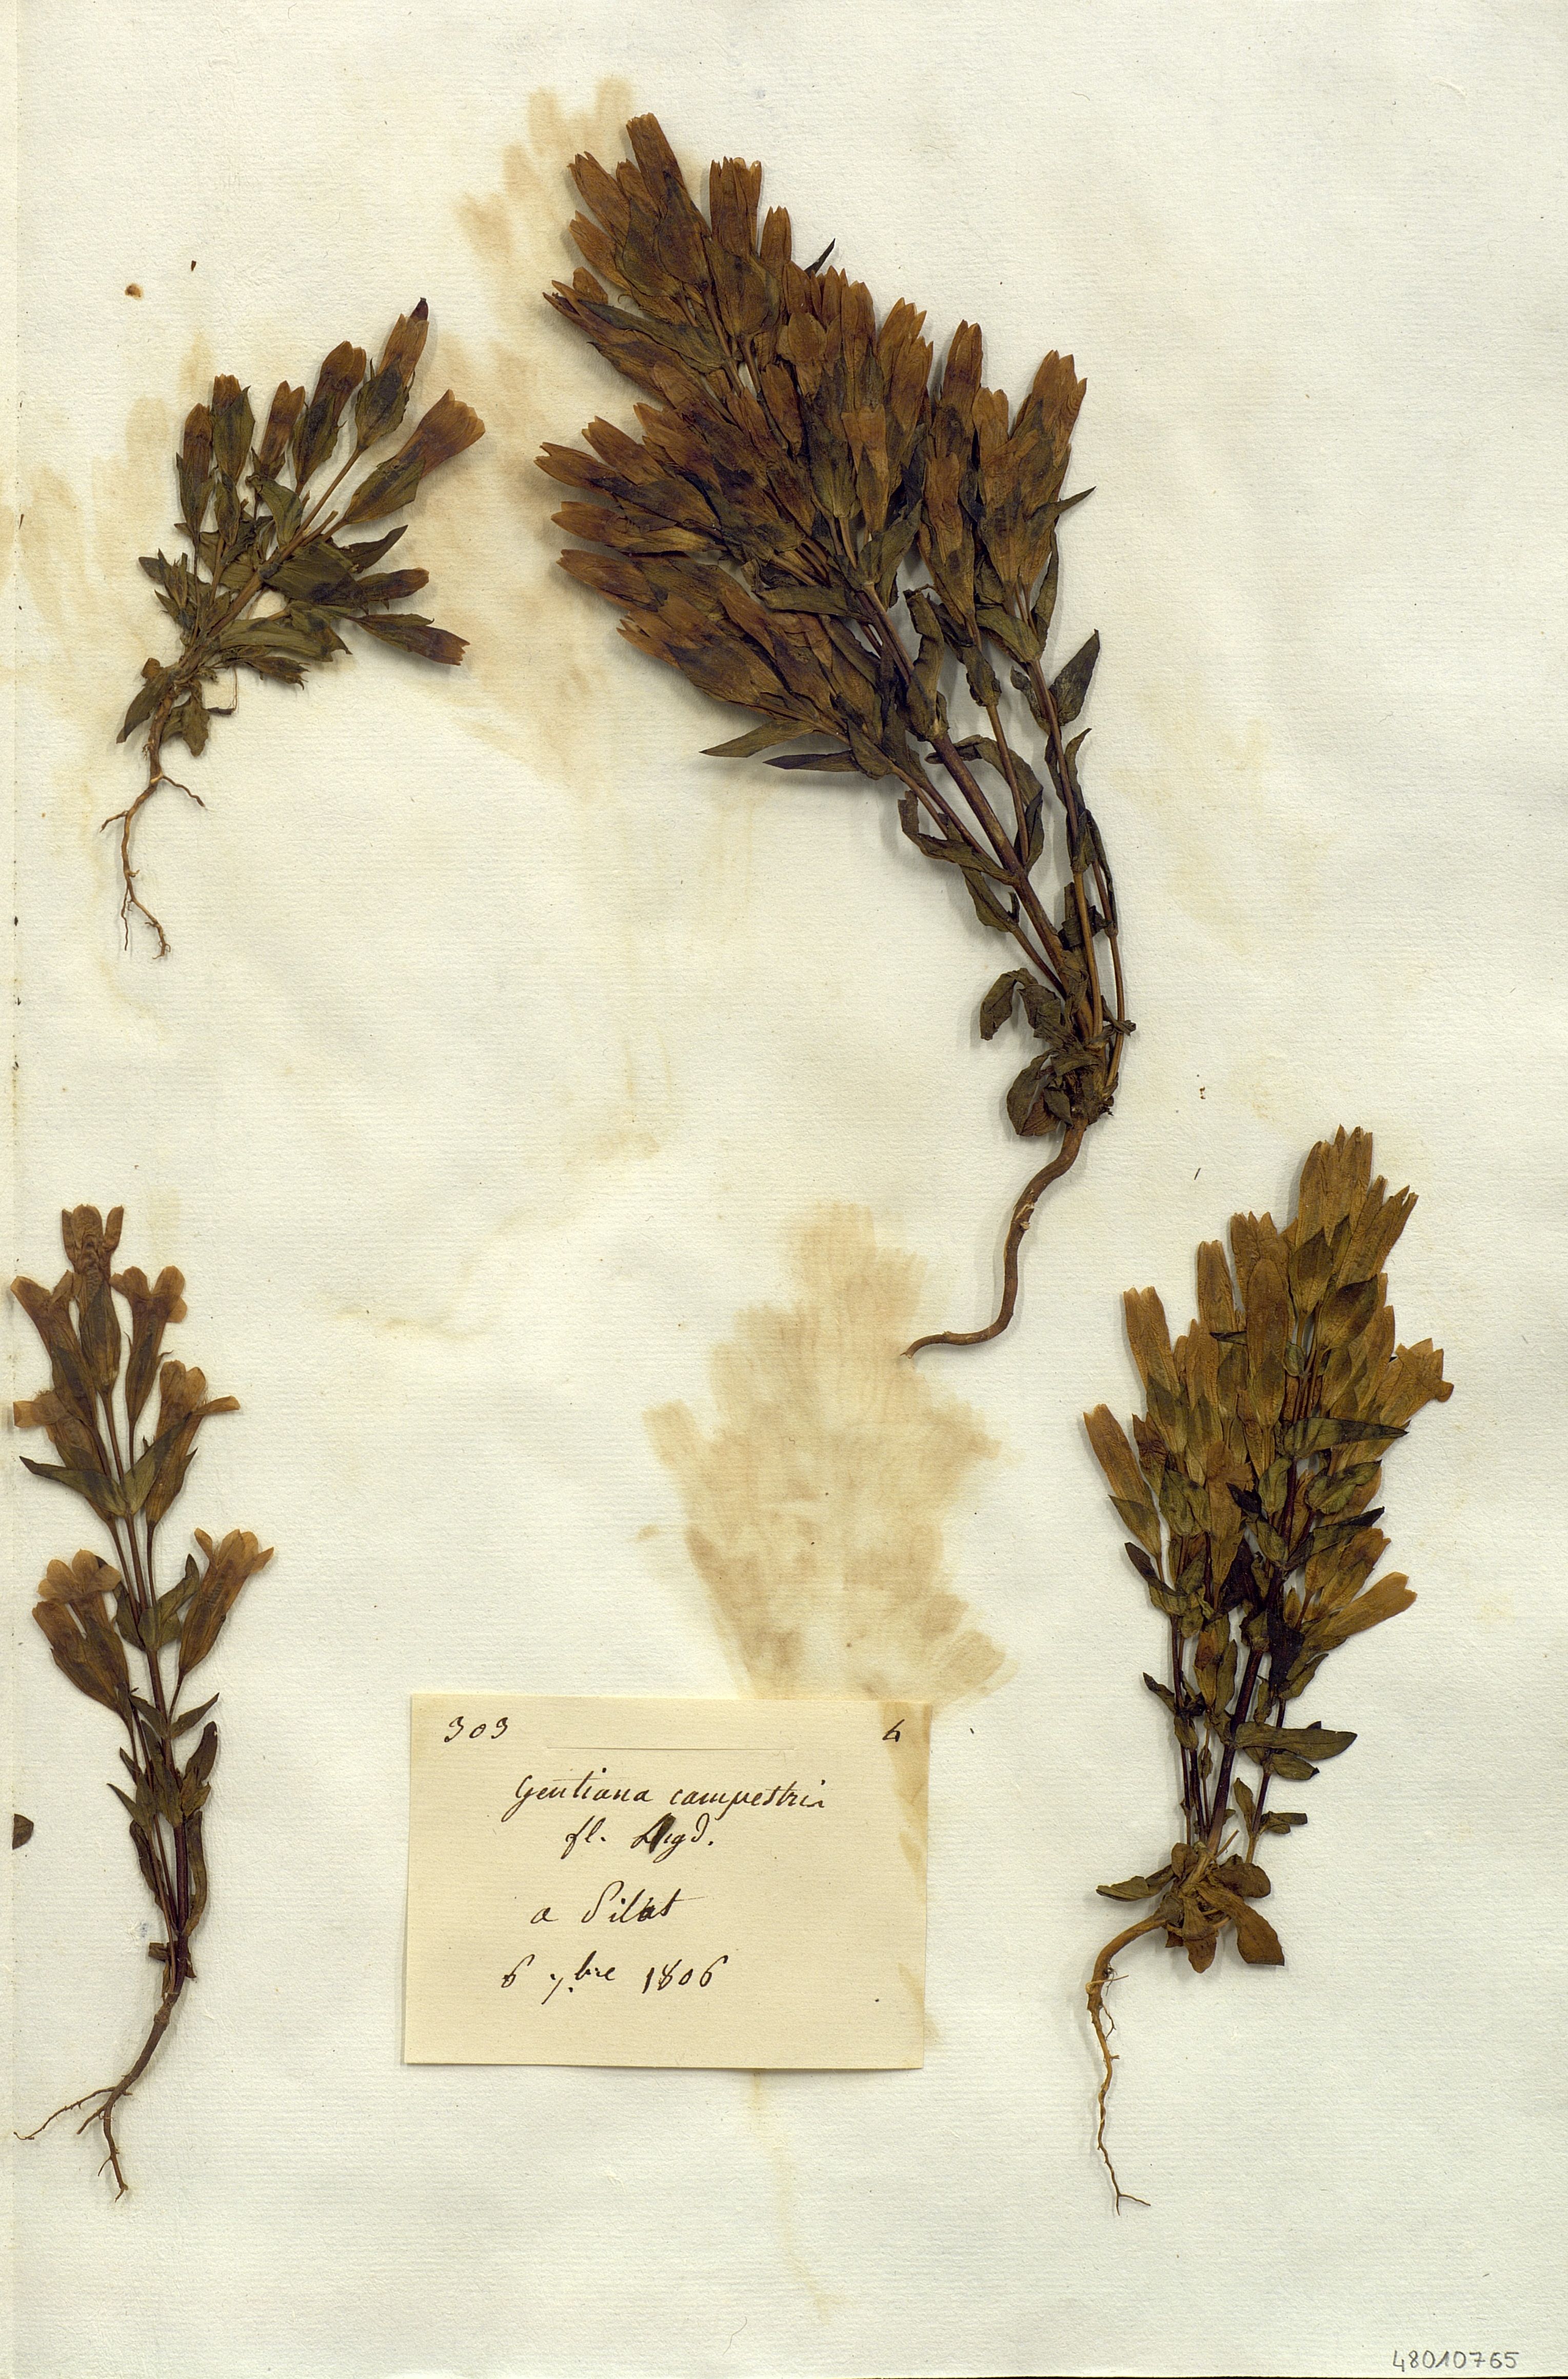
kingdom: Plantae
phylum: Tracheophyta
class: Magnoliopsida
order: Gentianales
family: Gentianaceae
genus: Gentianella
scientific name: Gentianella
